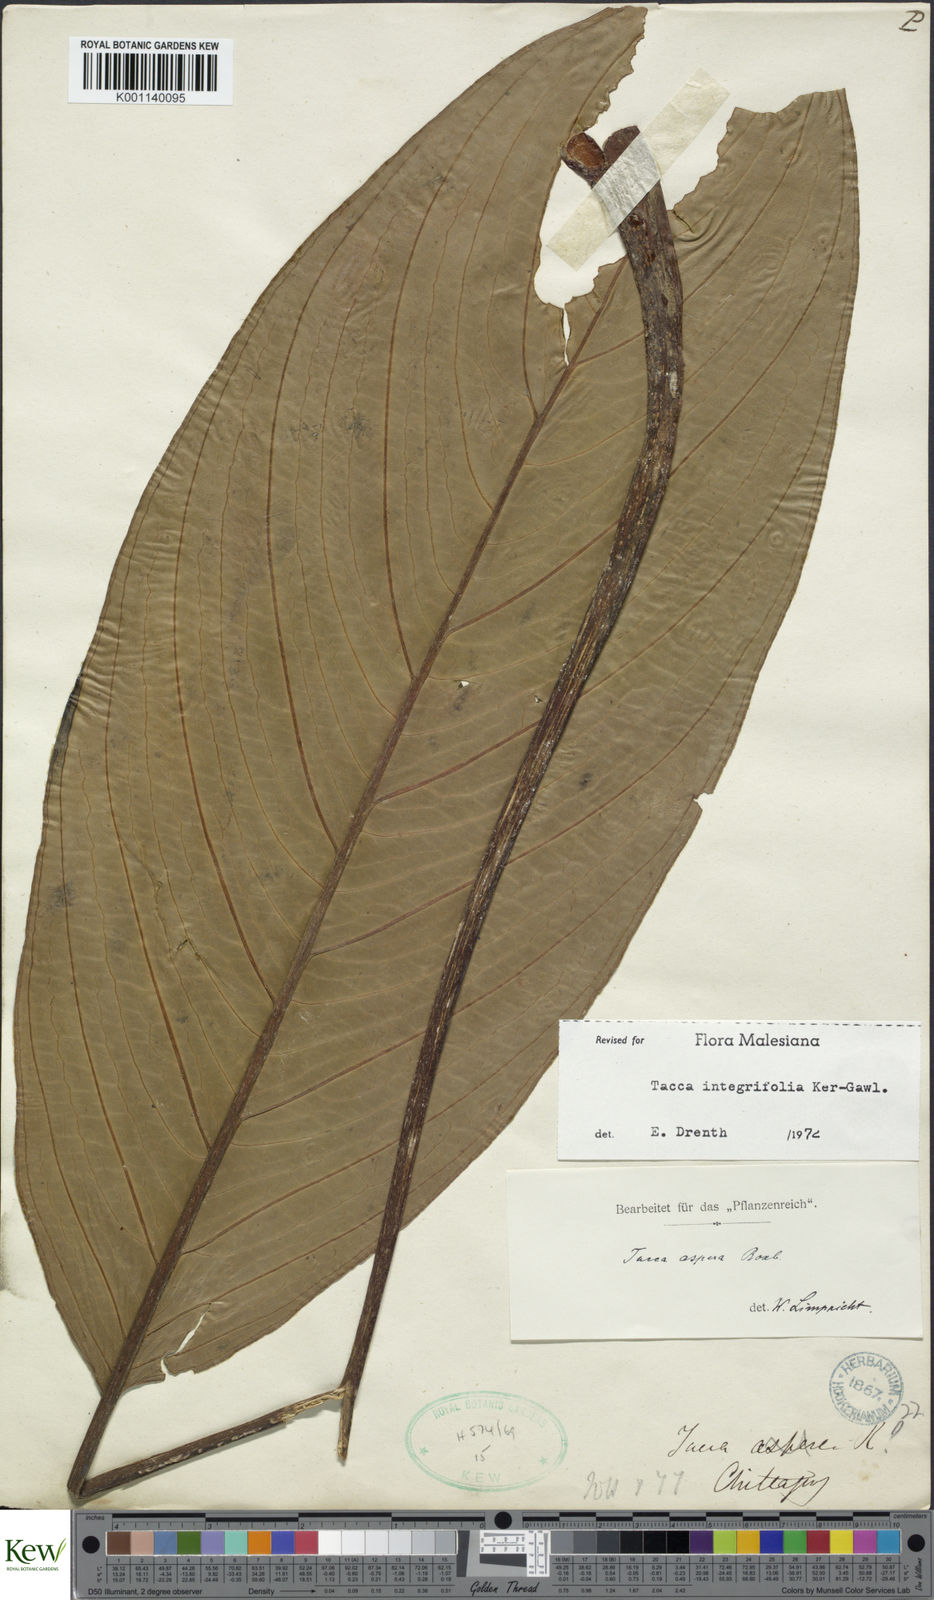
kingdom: Plantae
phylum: Tracheophyta
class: Liliopsida
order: Dioscoreales
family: Dioscoreaceae
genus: Tacca
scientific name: Tacca integrifolia
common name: Batplant
